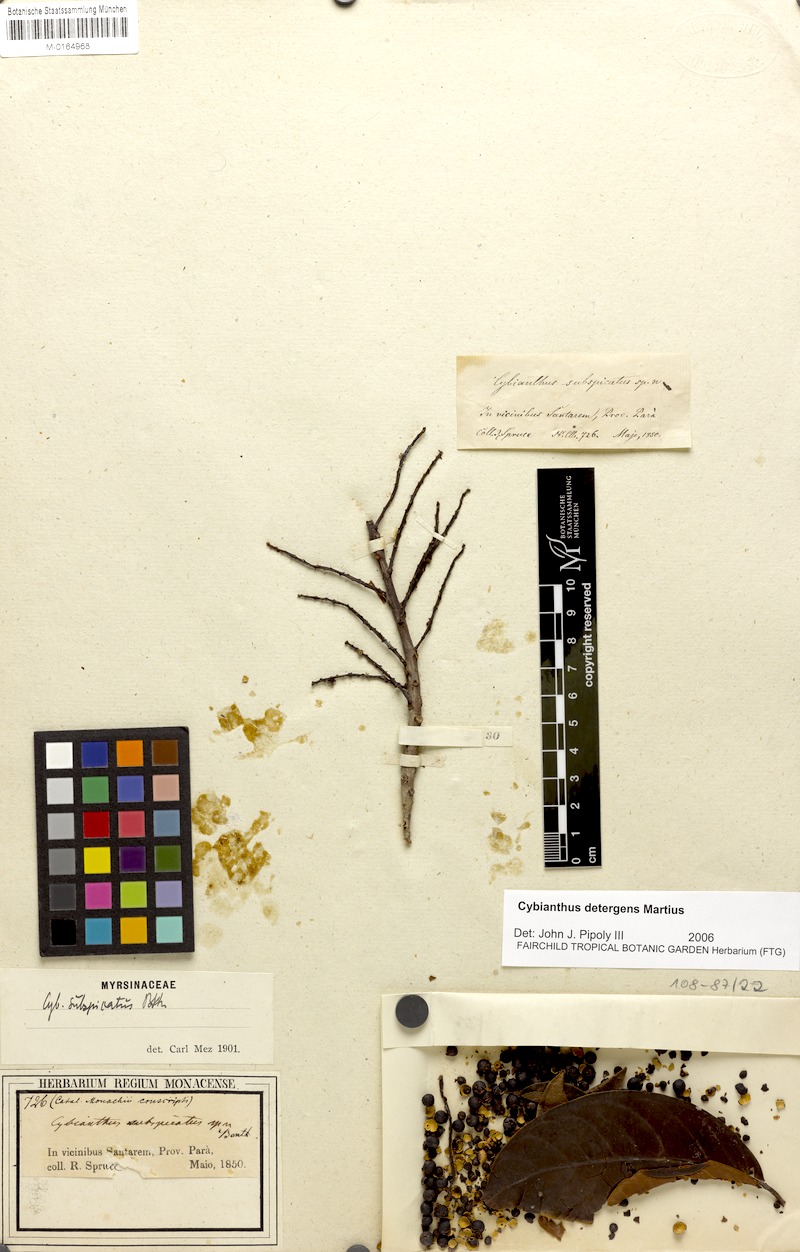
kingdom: Plantae
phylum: Tracheophyta
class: Magnoliopsida
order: Ericales
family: Primulaceae
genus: Cybianthus
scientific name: Cybianthus detergens
